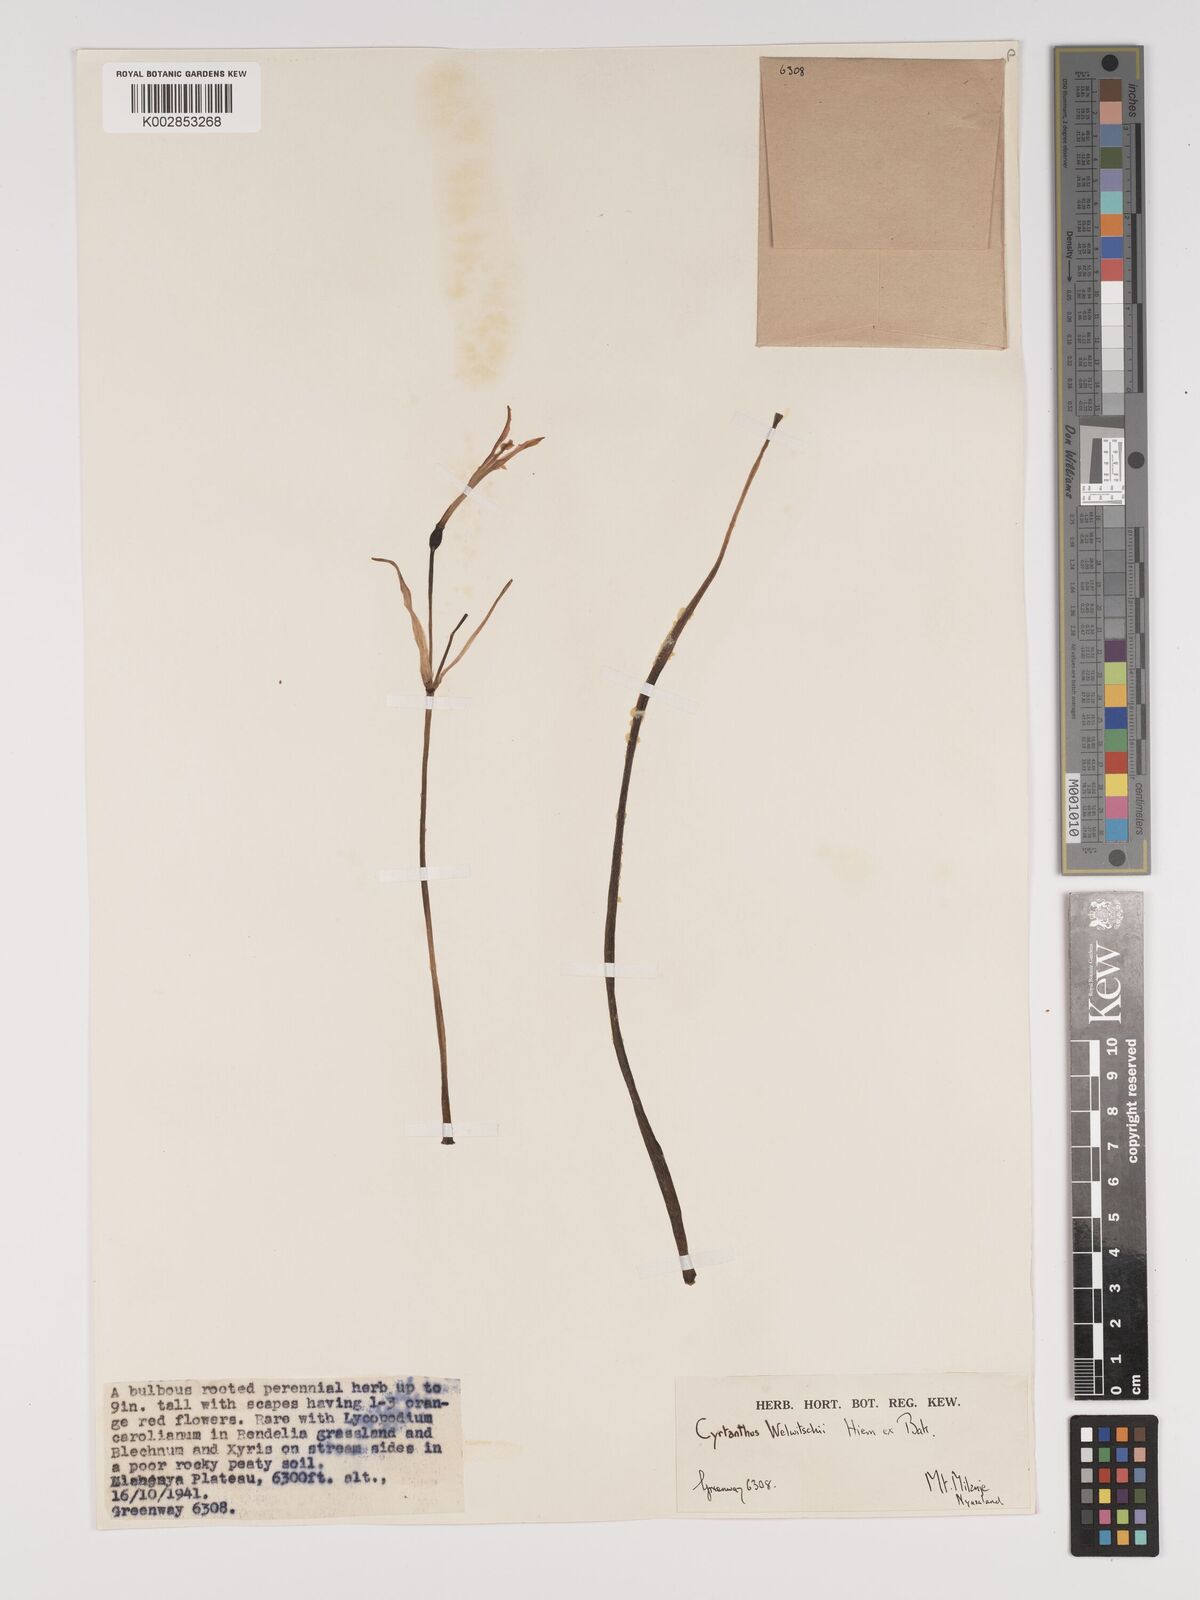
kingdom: Plantae
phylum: Tracheophyta
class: Liliopsida
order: Asparagales
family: Amaryllidaceae
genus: Cyrtanthus
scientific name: Cyrtanthus welwitschii
